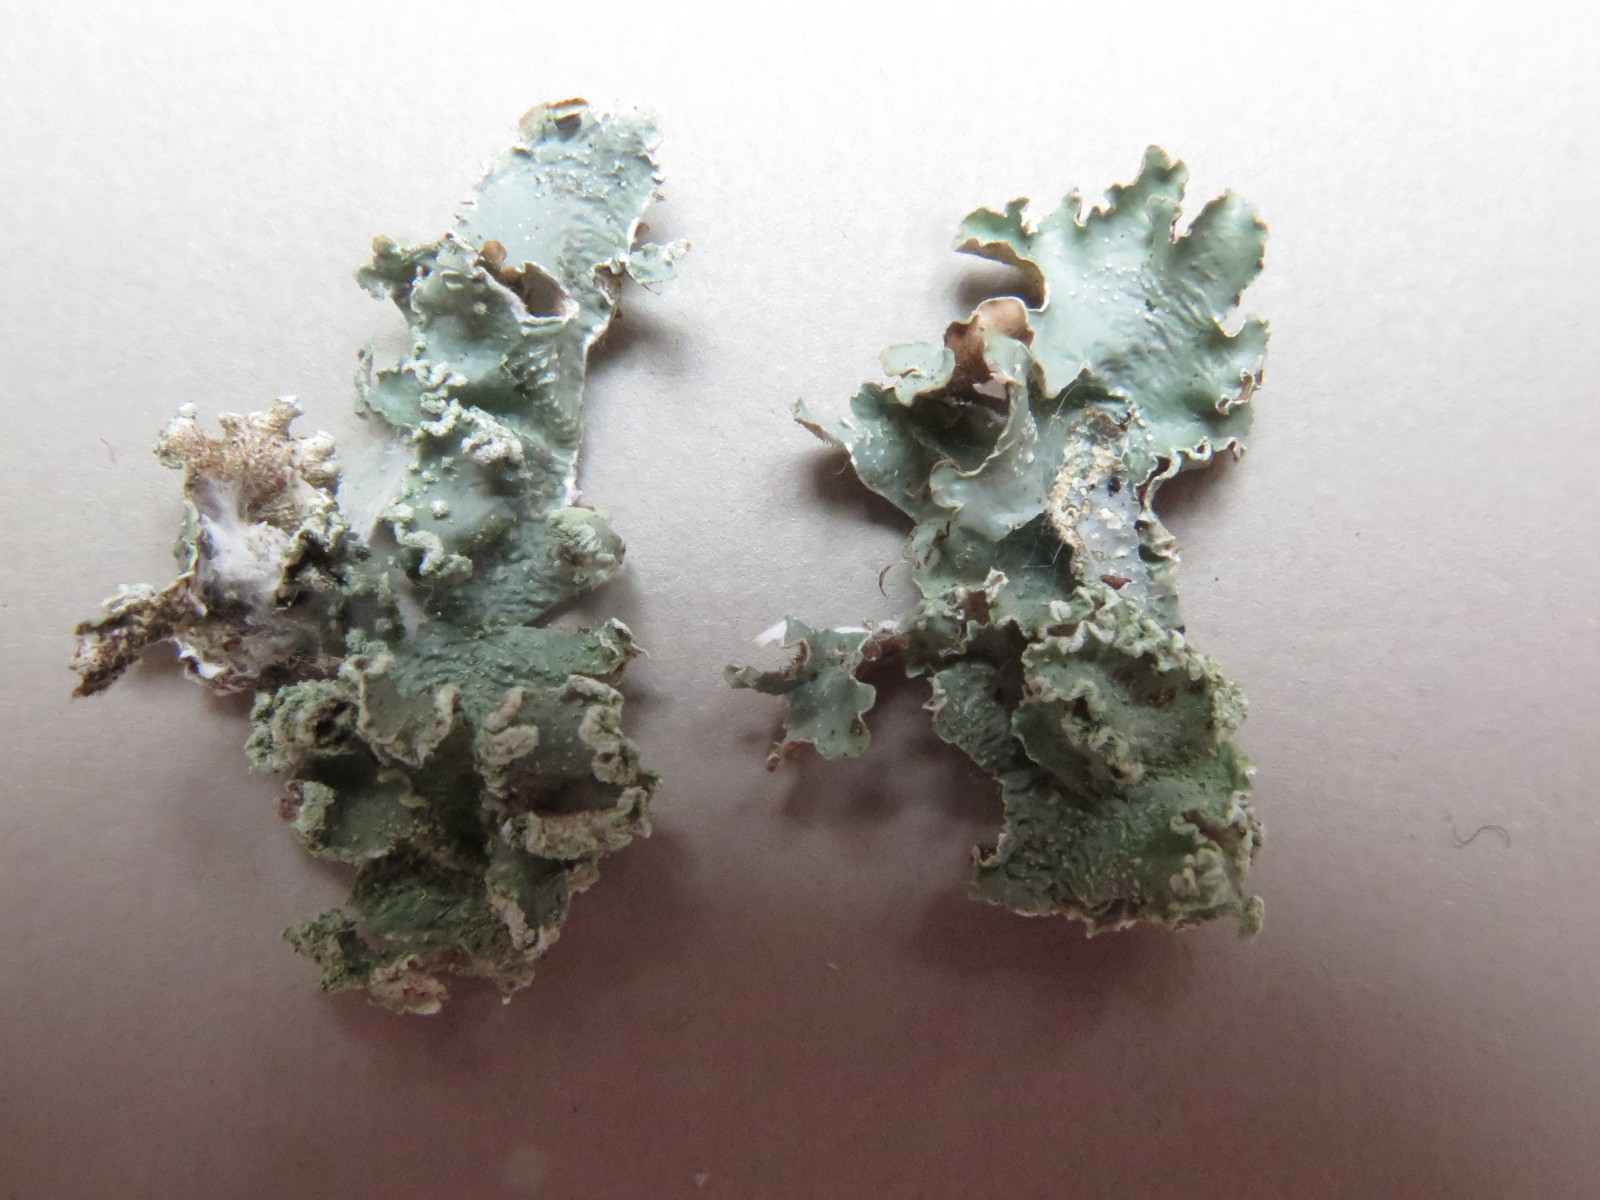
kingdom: Fungi
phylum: Ascomycota
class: Lecanoromycetes
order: Lecanorales
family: Parmeliaceae
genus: Punctelia
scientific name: Punctelia jeckeri
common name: randstøvet skållav
